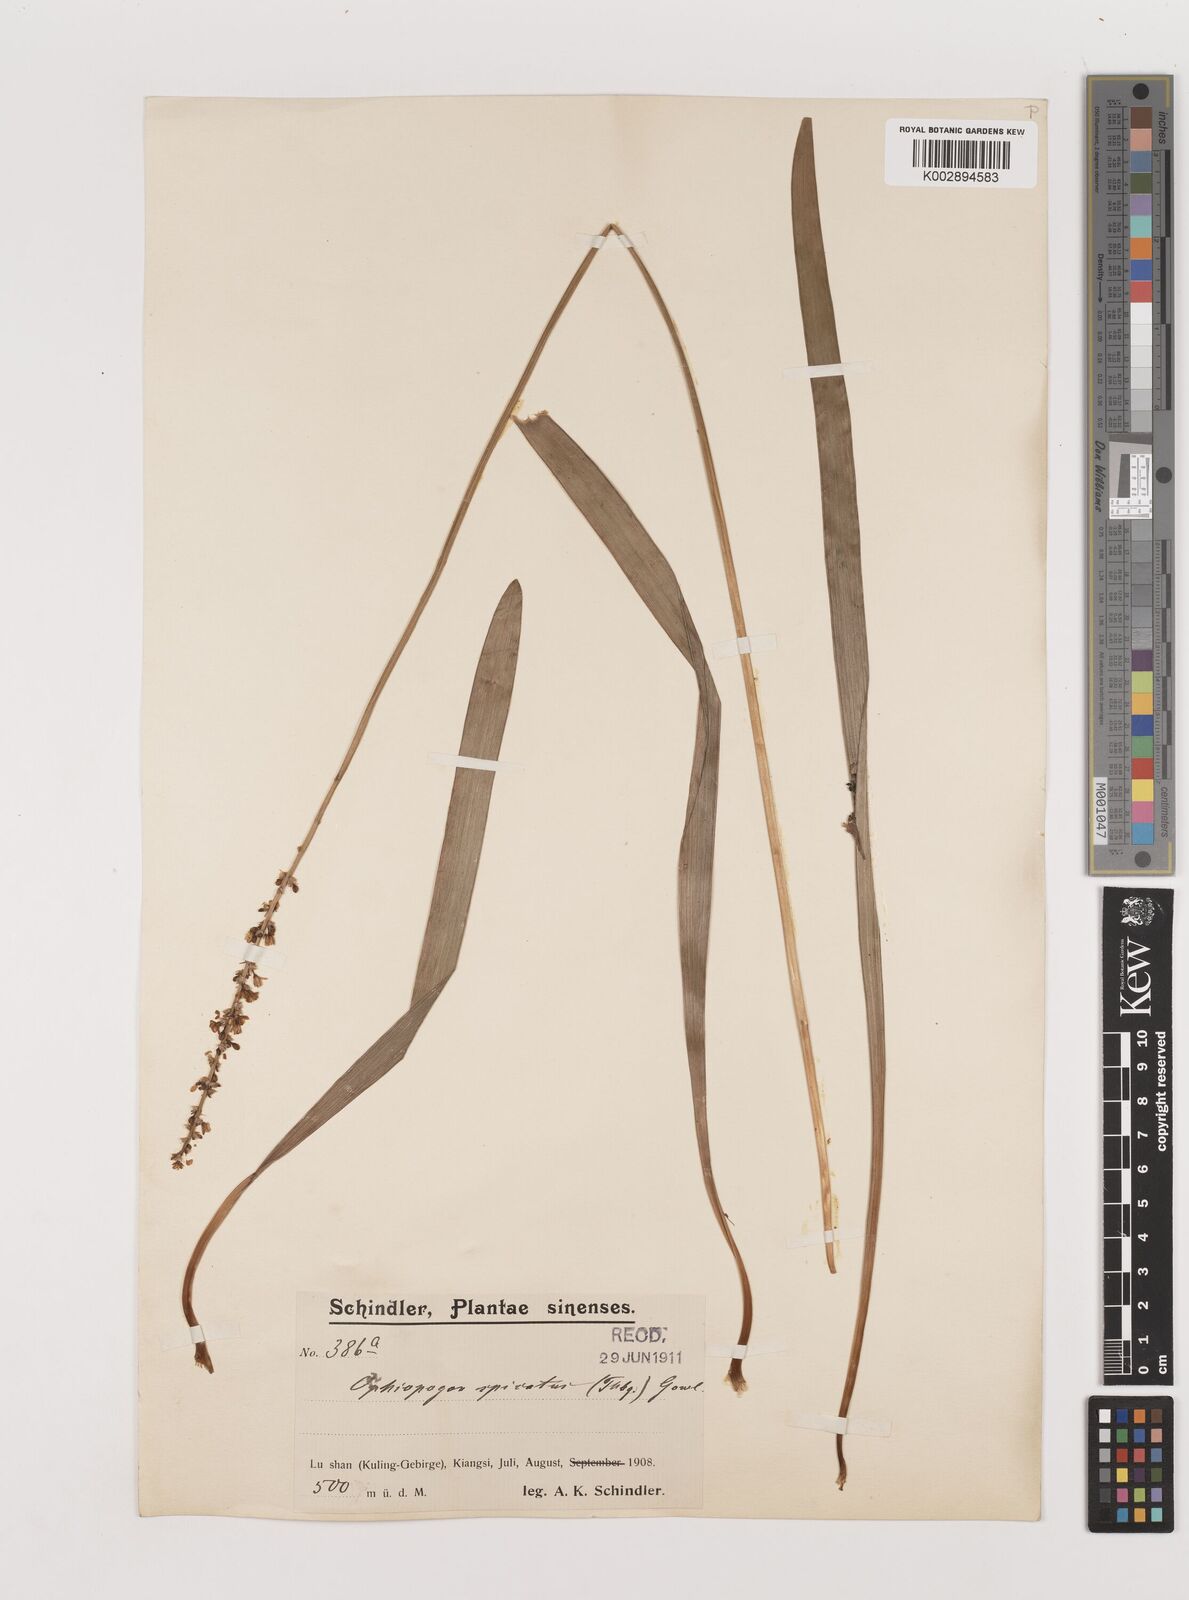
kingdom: Plantae
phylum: Tracheophyta
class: Liliopsida
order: Asparagales
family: Asparagaceae
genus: Liriope
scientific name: Liriope muscari
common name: Big blue lilyturf
